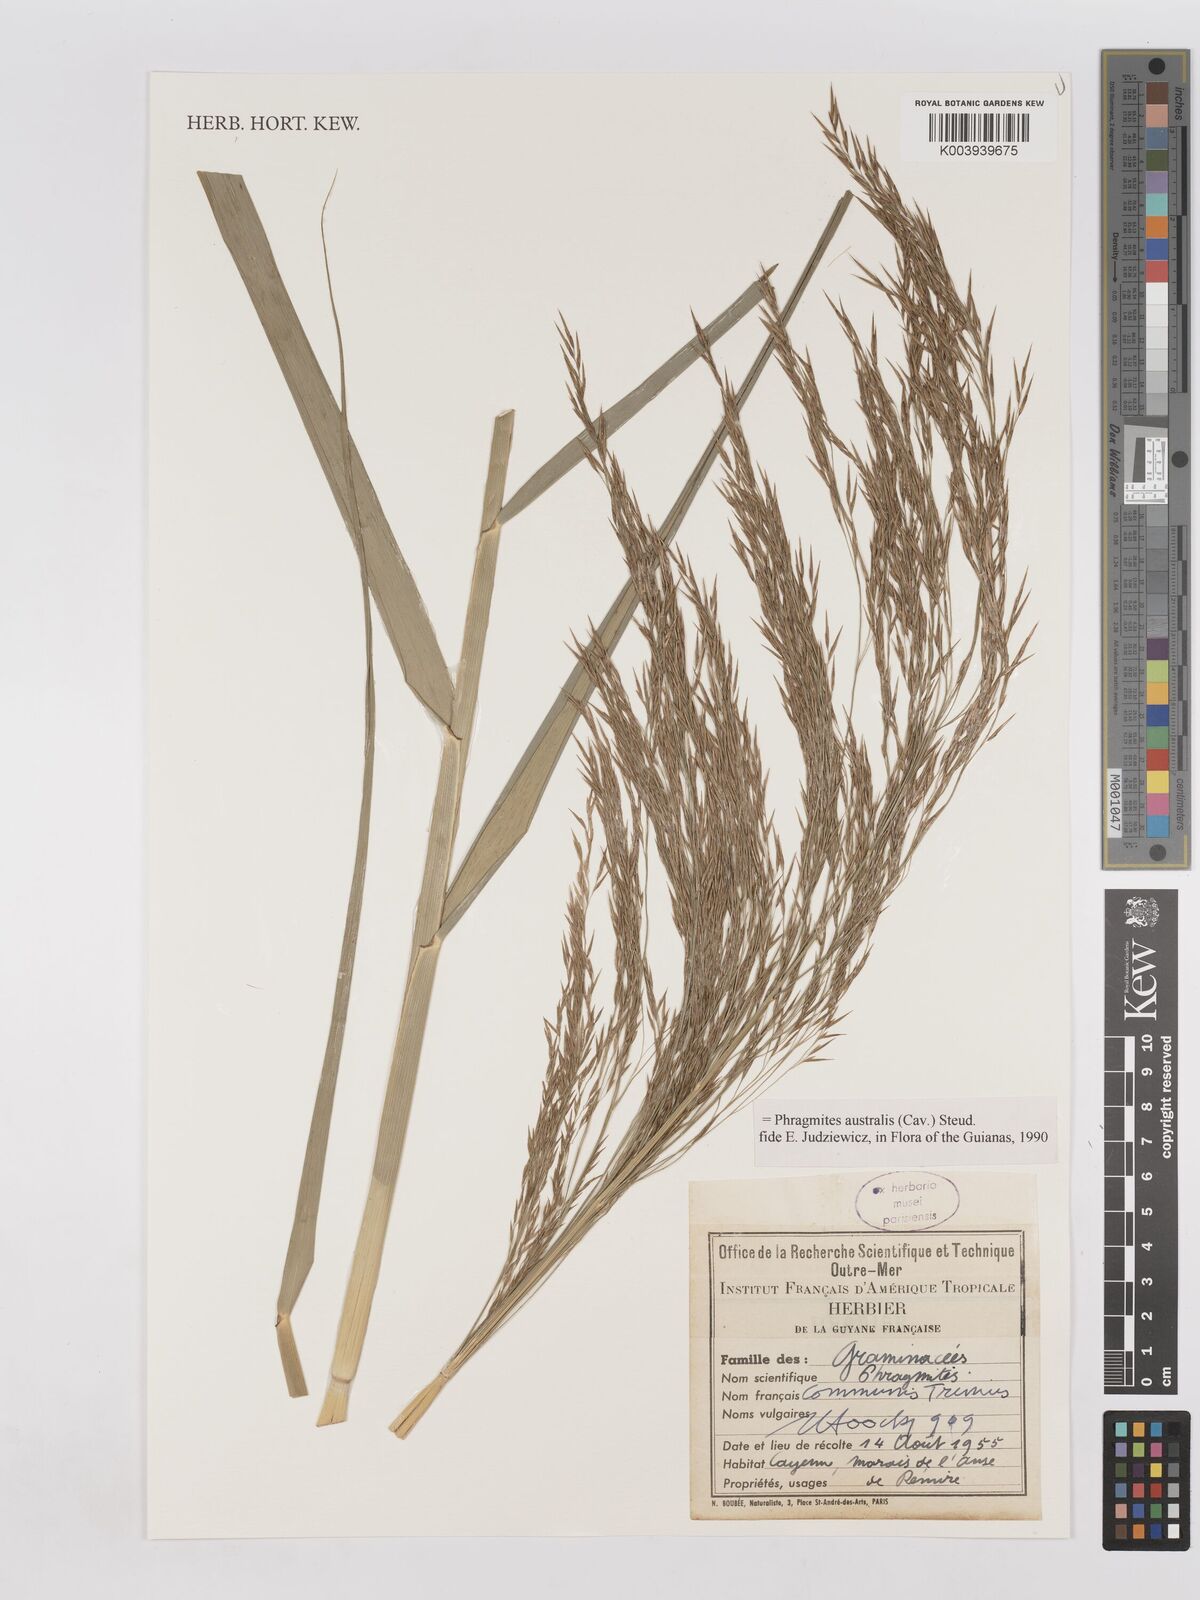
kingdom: Plantae
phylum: Tracheophyta
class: Liliopsida
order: Poales
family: Poaceae
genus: Phragmites
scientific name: Phragmites australis
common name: Common reed
